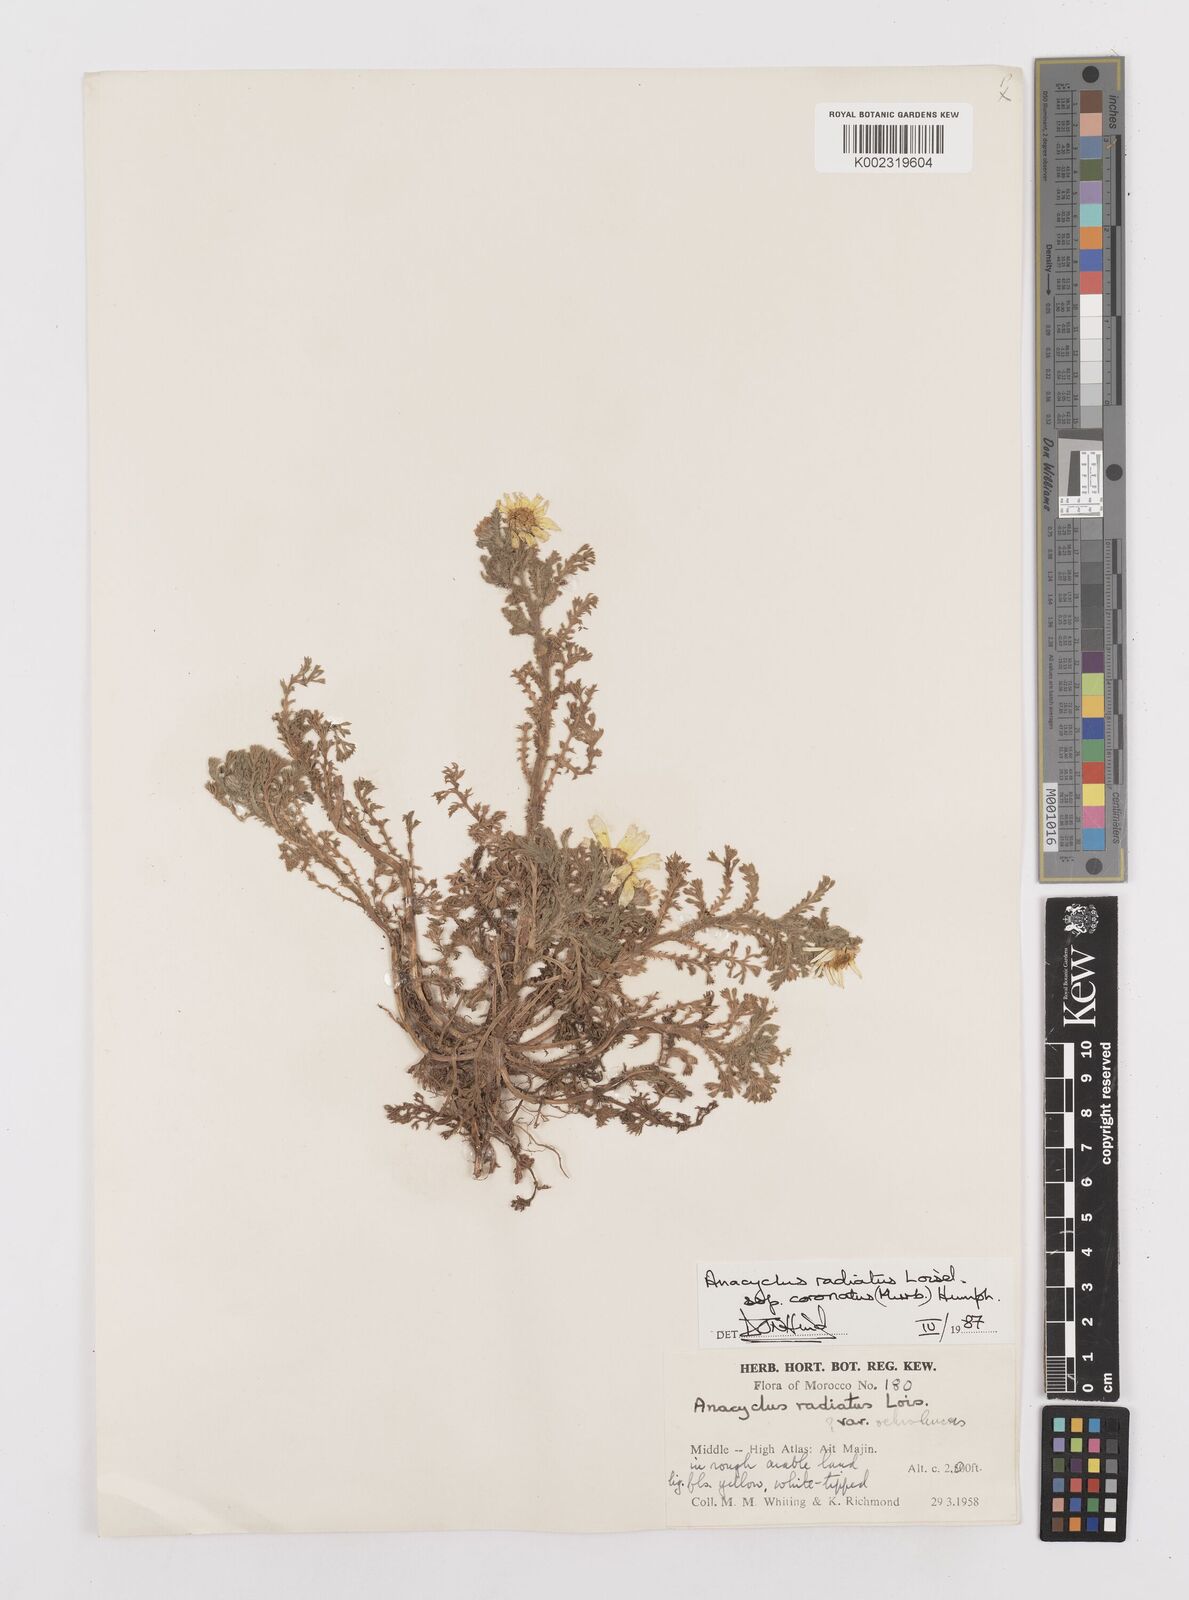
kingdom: Plantae
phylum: Tracheophyta
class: Magnoliopsida
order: Asterales
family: Asteraceae
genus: Anacyclus
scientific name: Anacyclus radiatus
